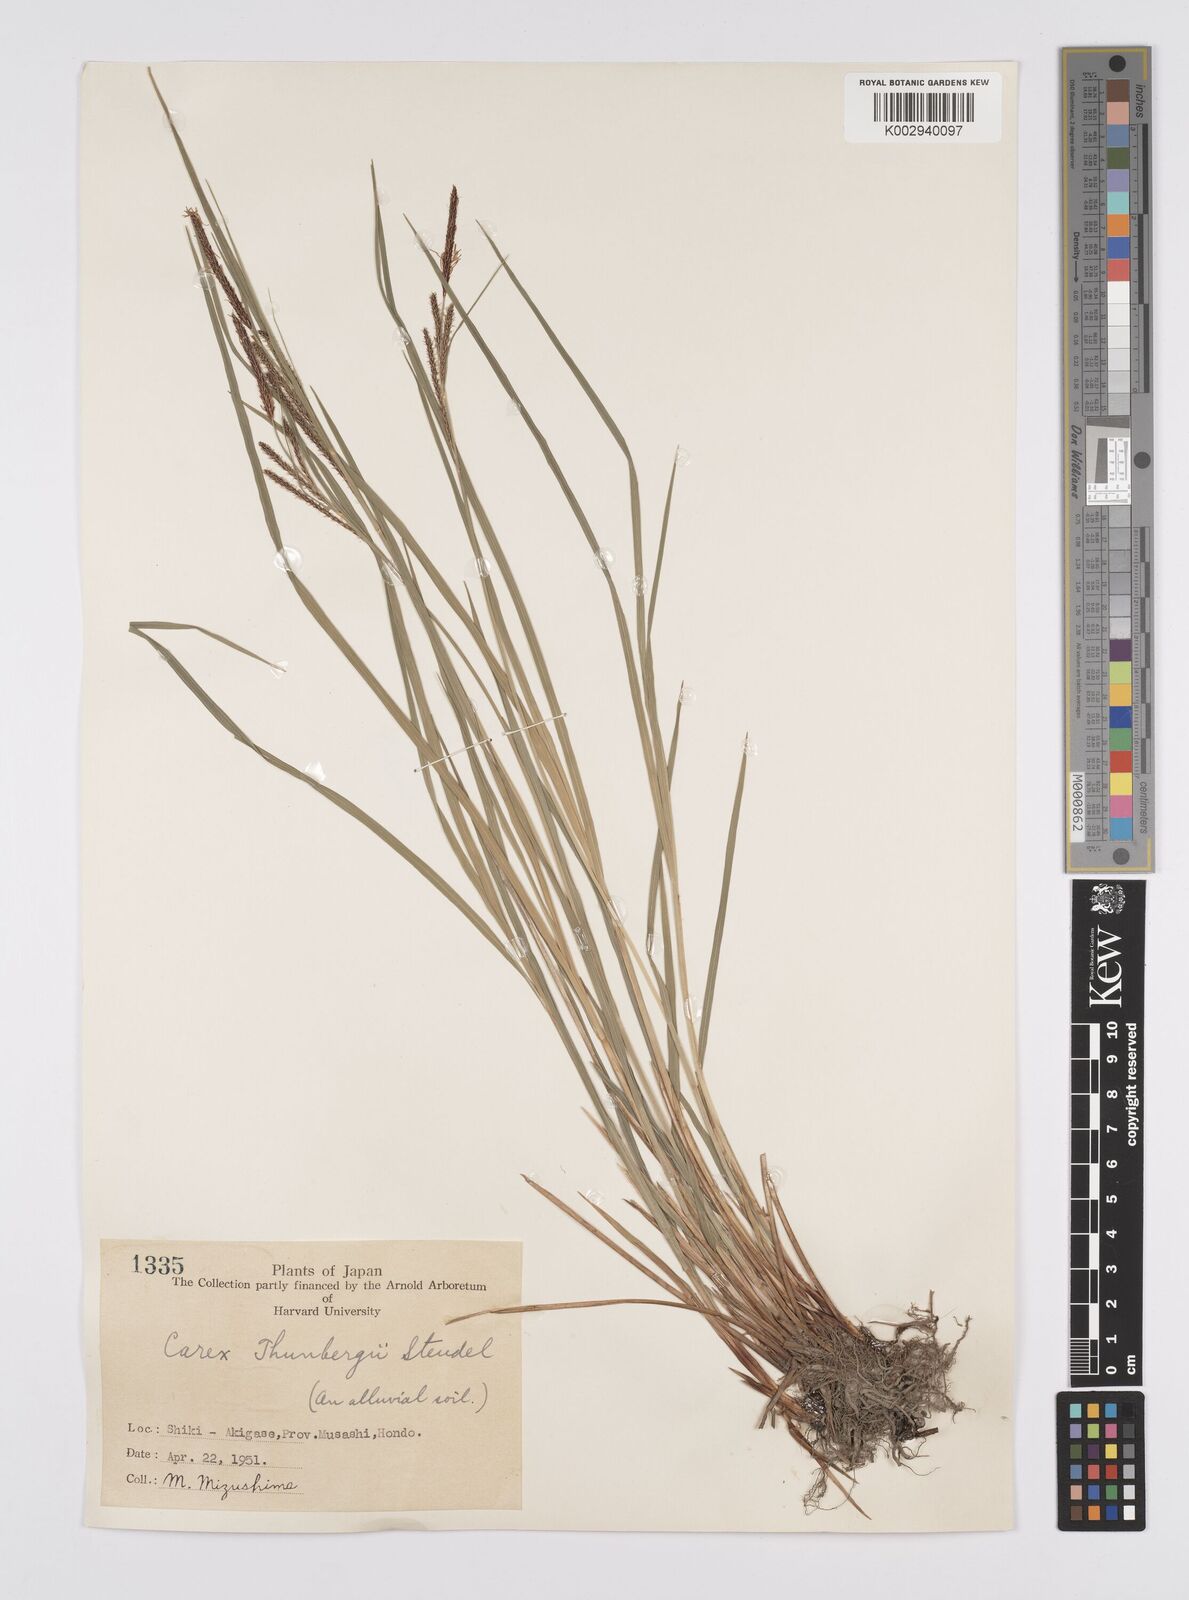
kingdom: Plantae
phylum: Tracheophyta
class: Liliopsida
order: Poales
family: Cyperaceae
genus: Carex
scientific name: Carex thunbergii
